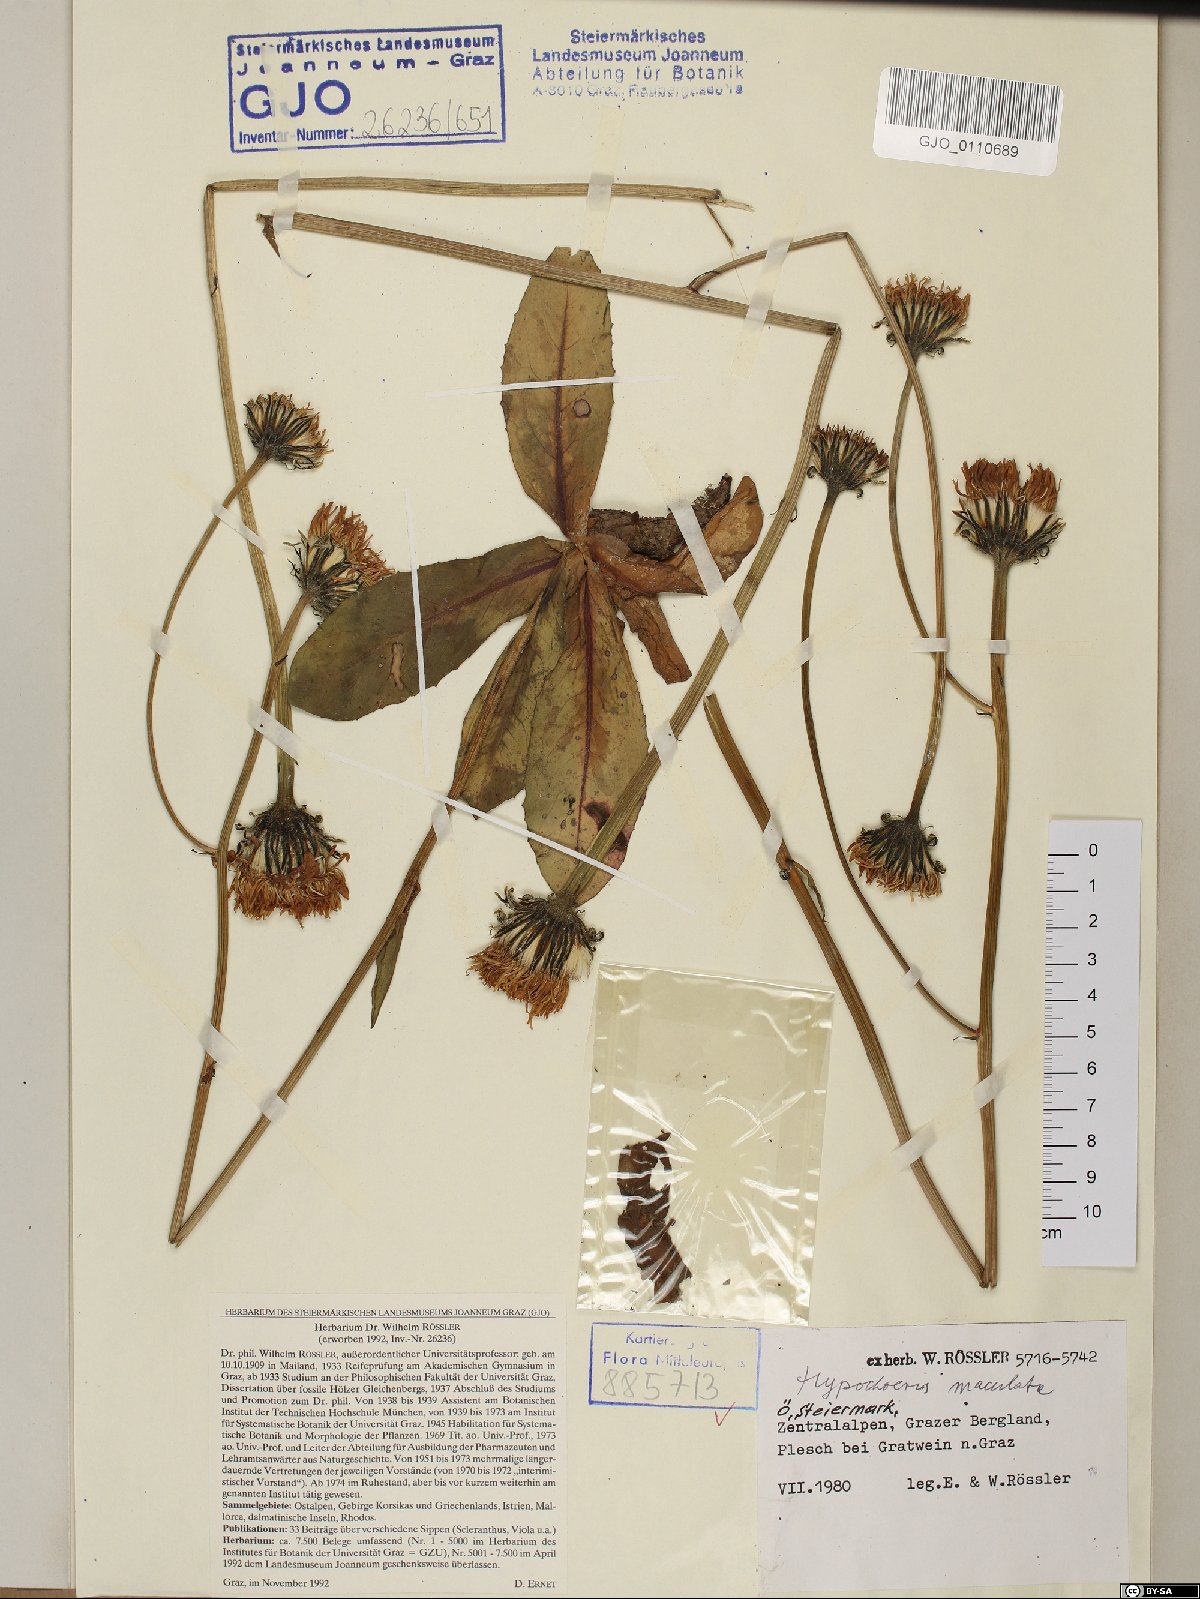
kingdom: Plantae
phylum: Tracheophyta
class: Magnoliopsida
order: Asterales
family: Asteraceae
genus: Trommsdorffia
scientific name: Trommsdorffia maculata
